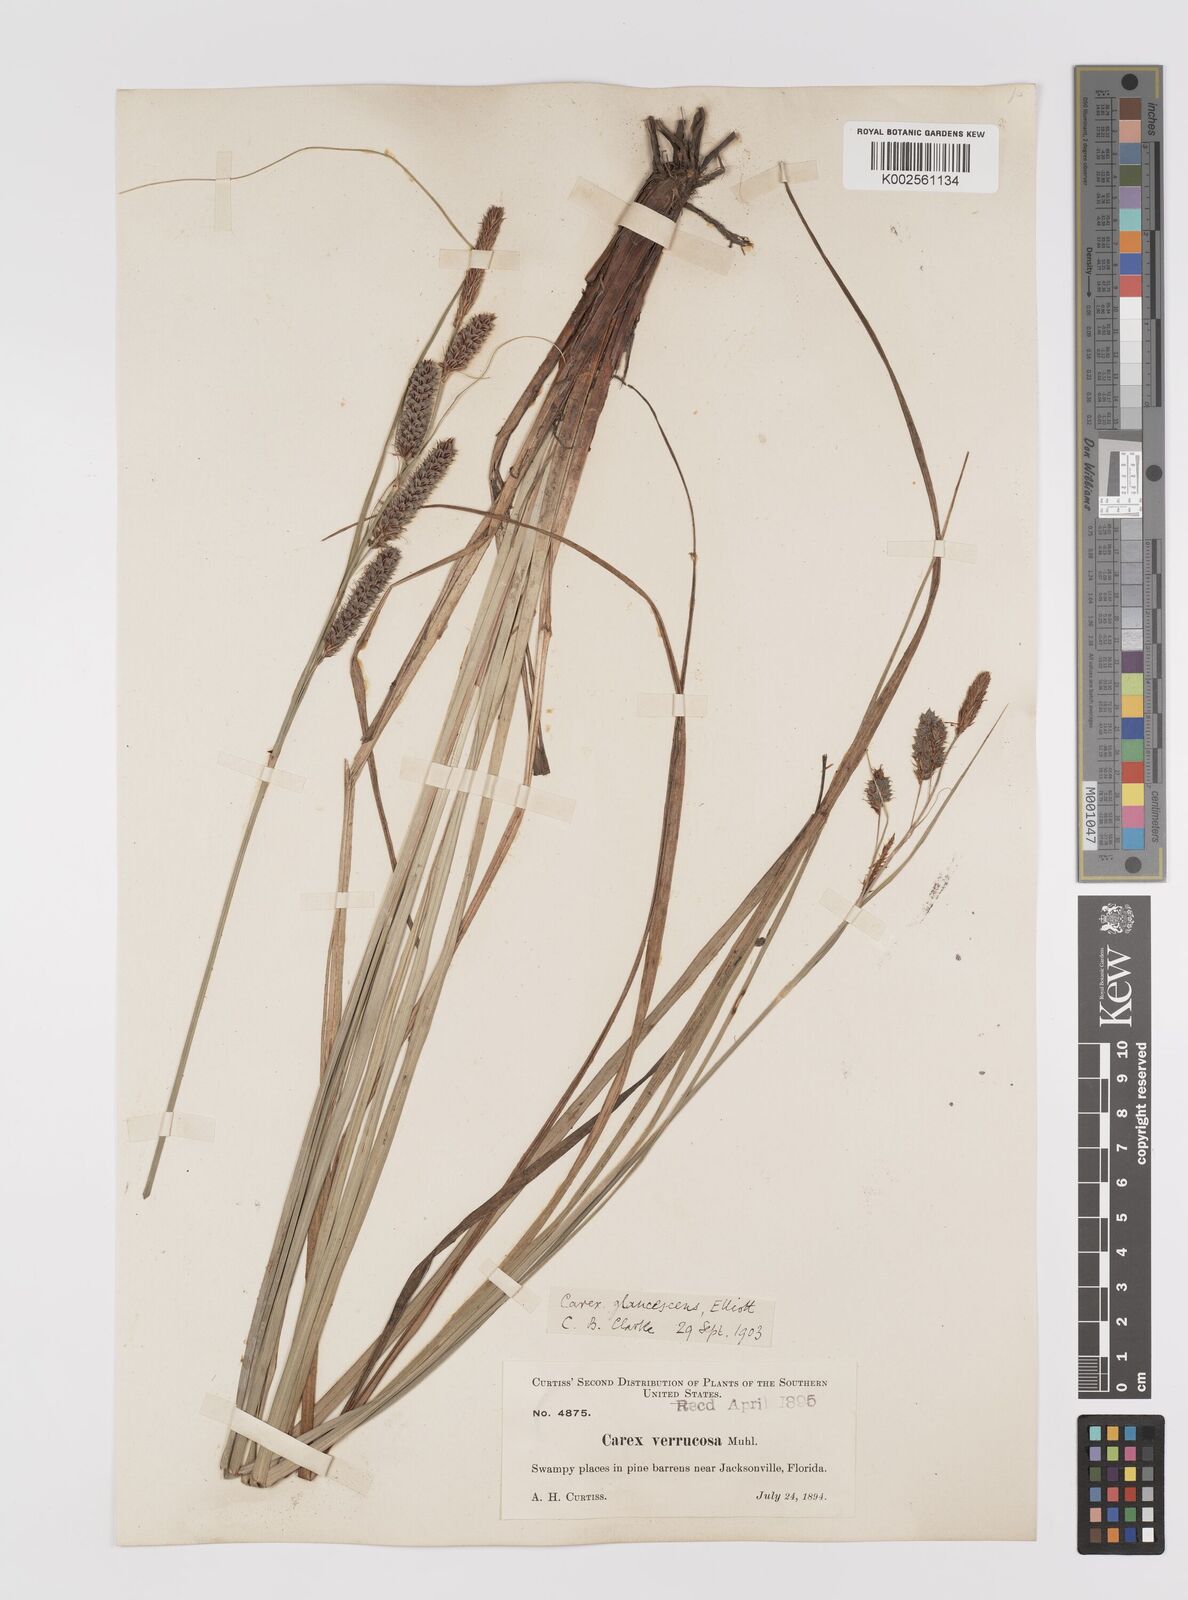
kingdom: Plantae
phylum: Tracheophyta
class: Liliopsida
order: Poales
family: Cyperaceae
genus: Carex
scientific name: Carex glaucescens
